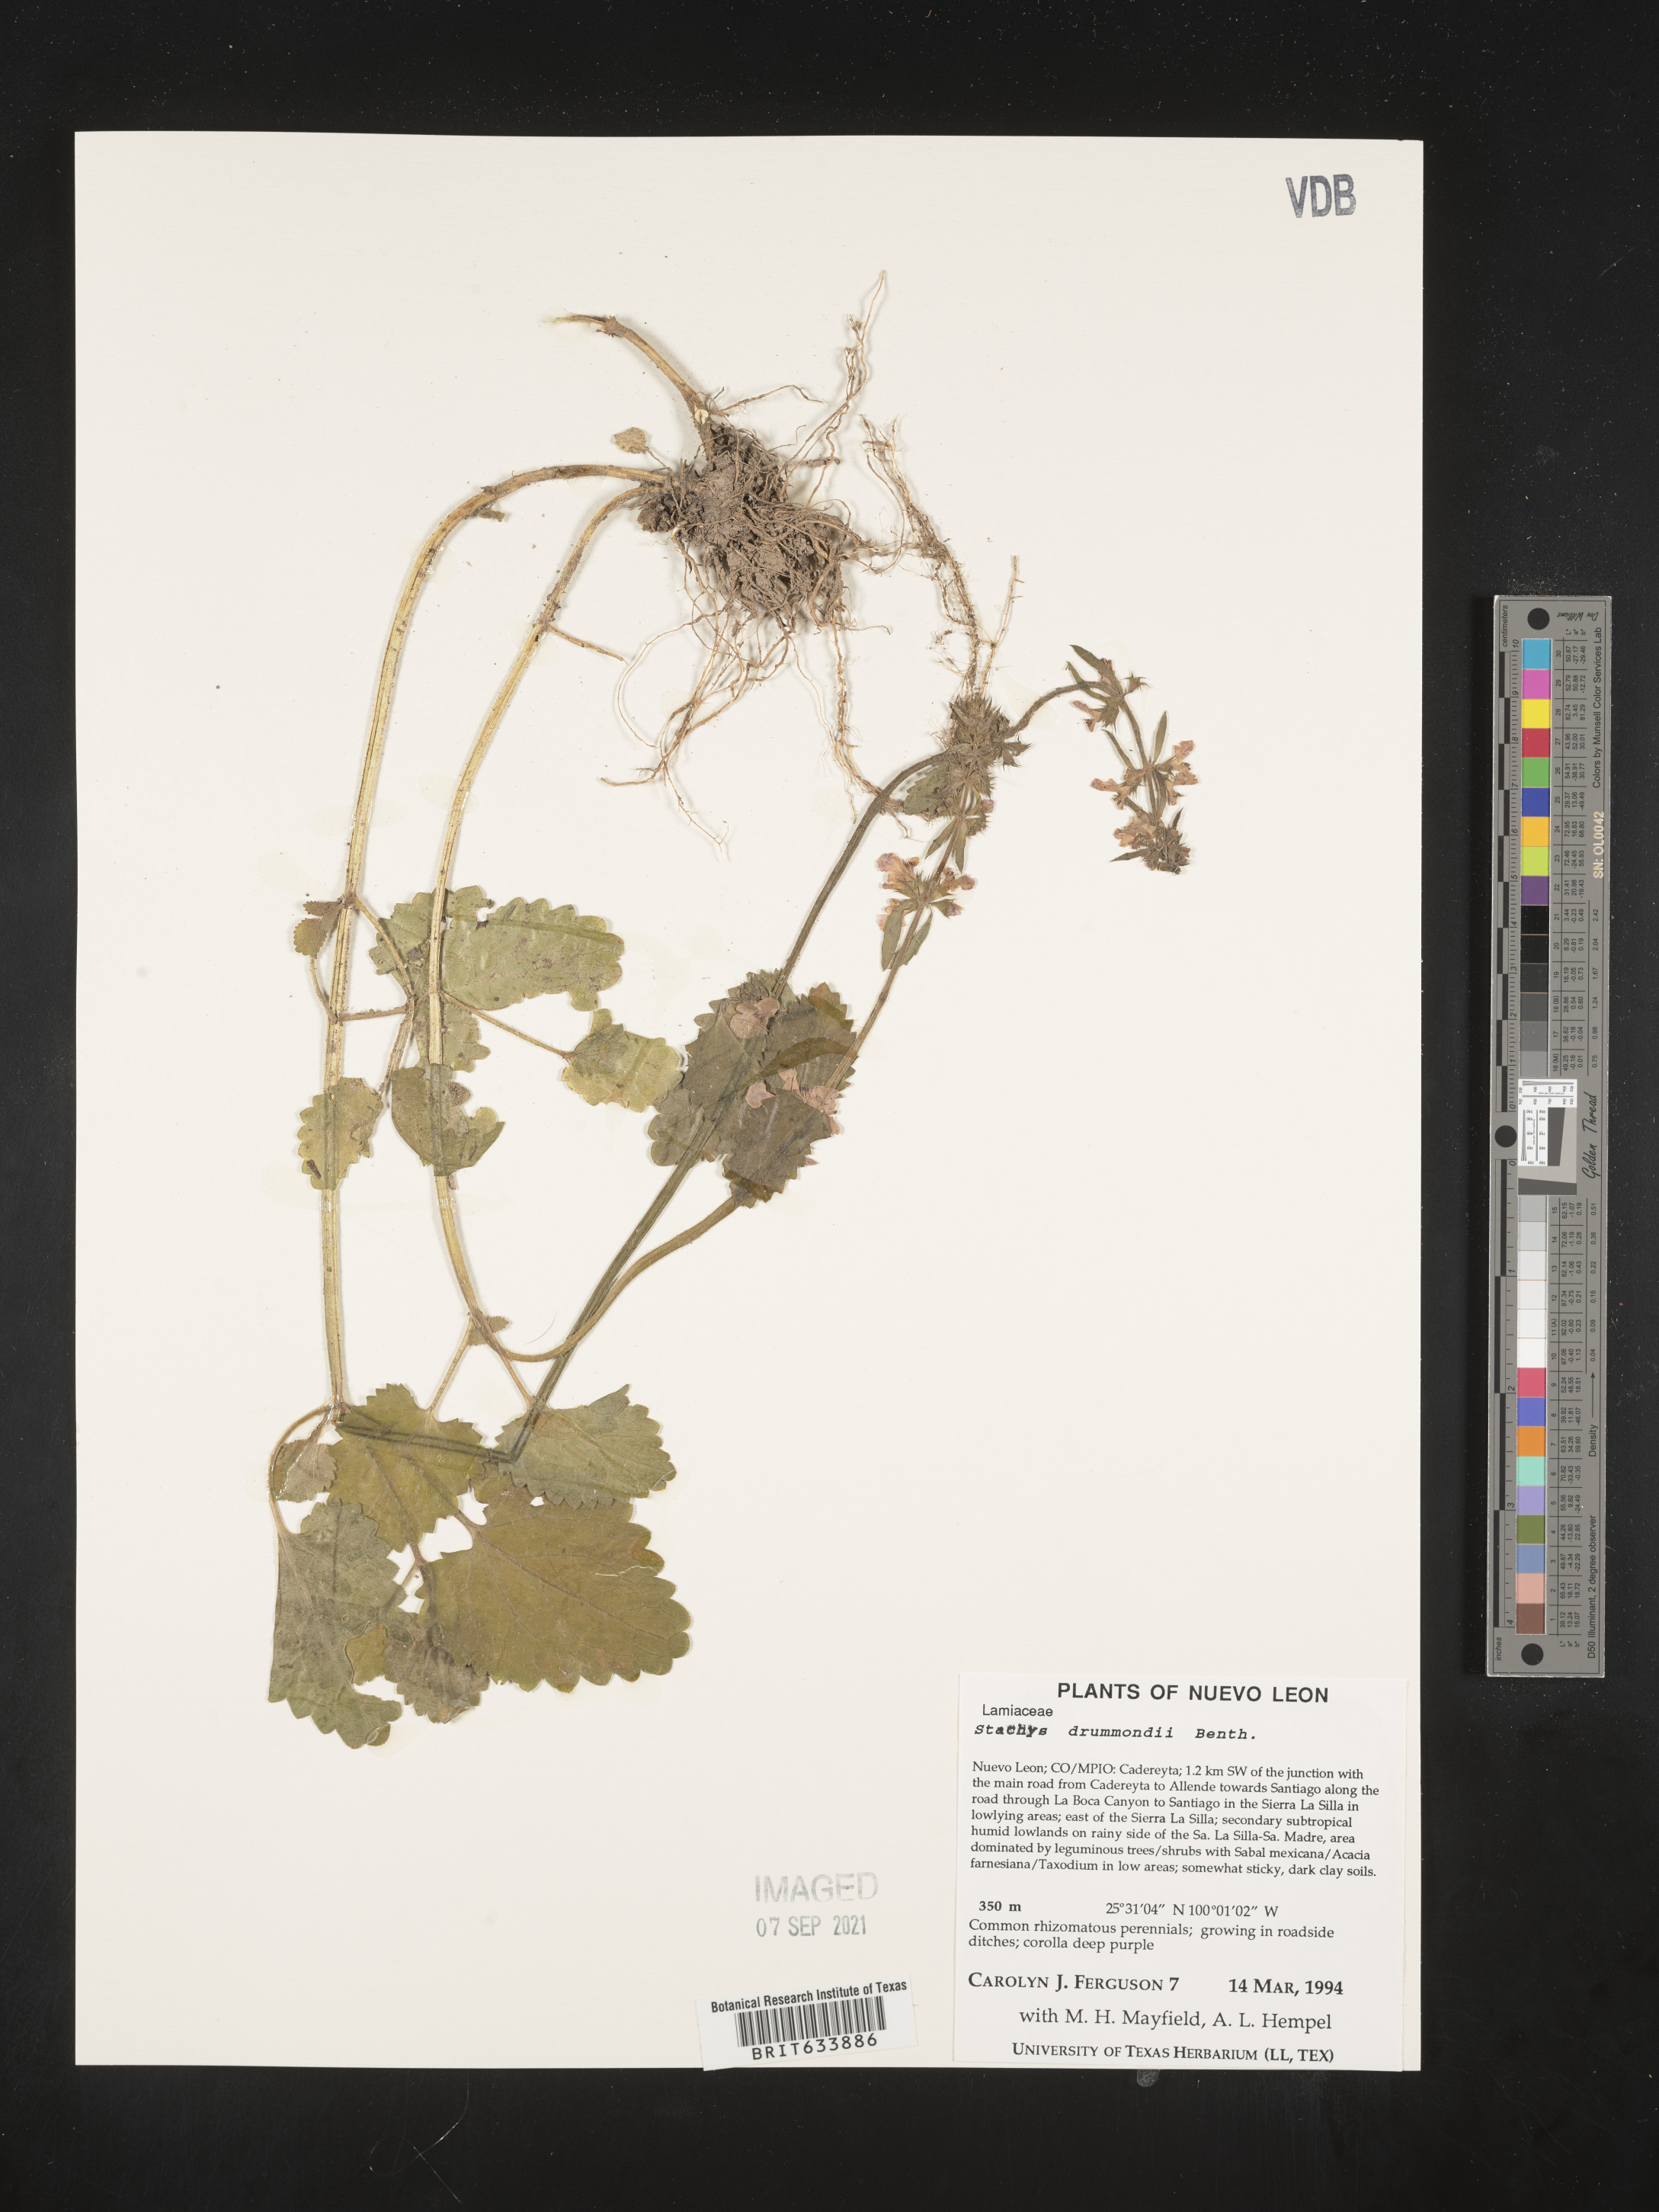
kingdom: Plantae
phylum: Tracheophyta
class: Magnoliopsida
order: Lamiales
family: Lamiaceae
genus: Stachys
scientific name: Stachys
